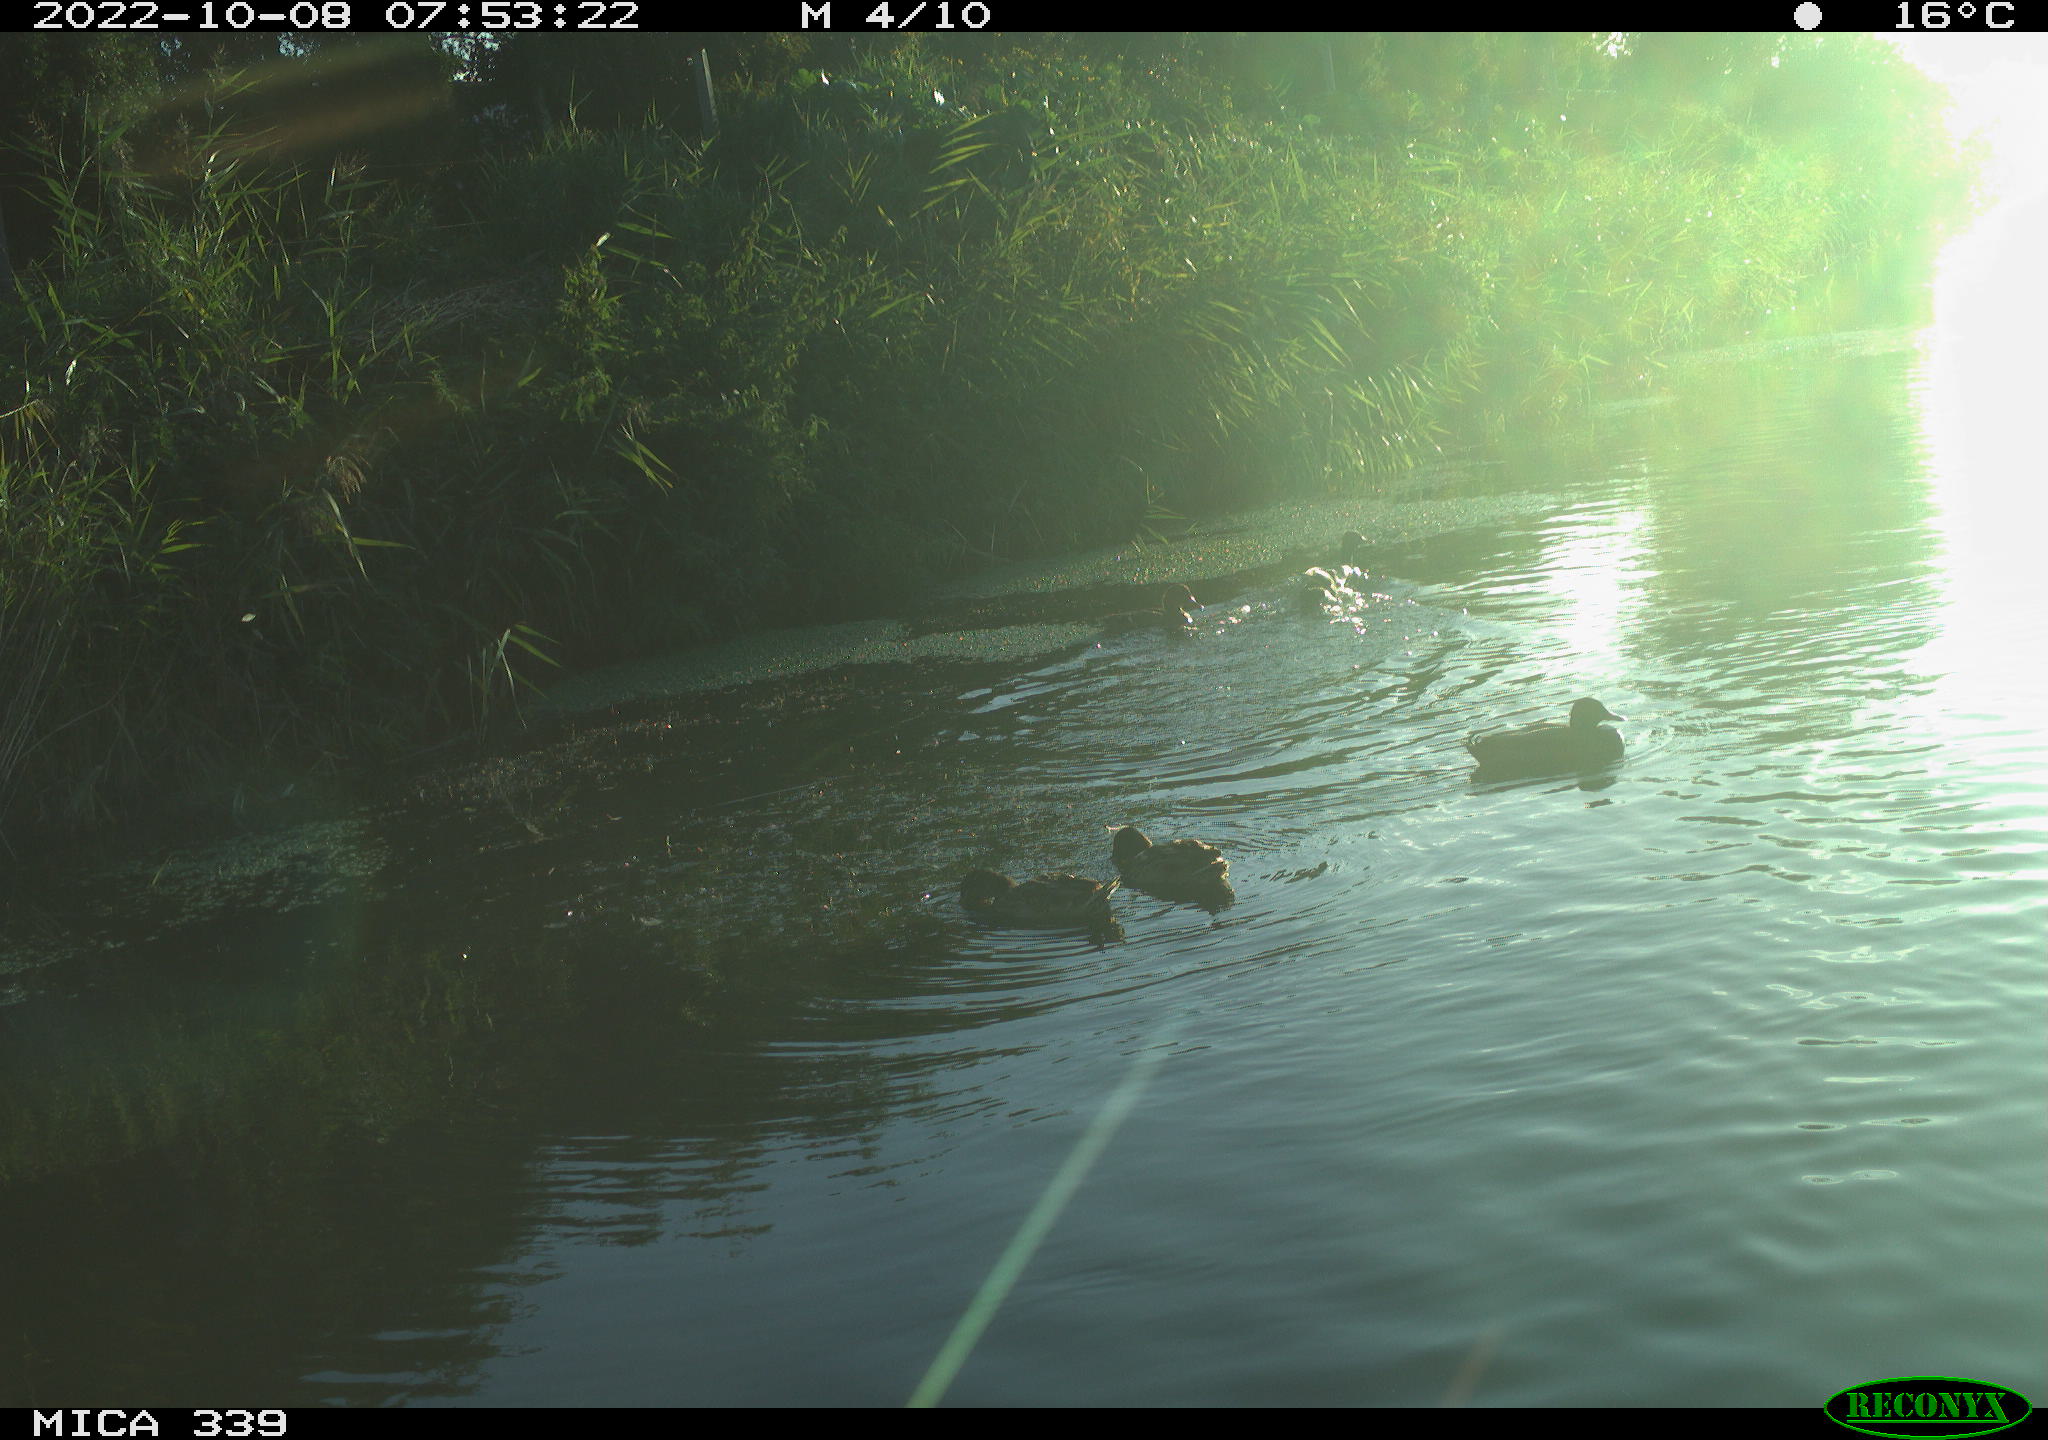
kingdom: Animalia
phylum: Chordata
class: Aves
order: Anseriformes
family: Anatidae
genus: Anas
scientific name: Anas platyrhynchos
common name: Mallard
